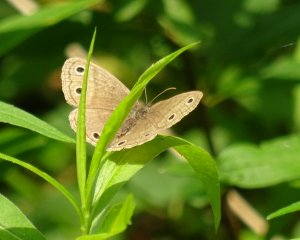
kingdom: Animalia
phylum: Arthropoda
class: Insecta
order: Lepidoptera
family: Nymphalidae
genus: Euptychia
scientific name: Euptychia cymela
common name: Little Wood Satyr
